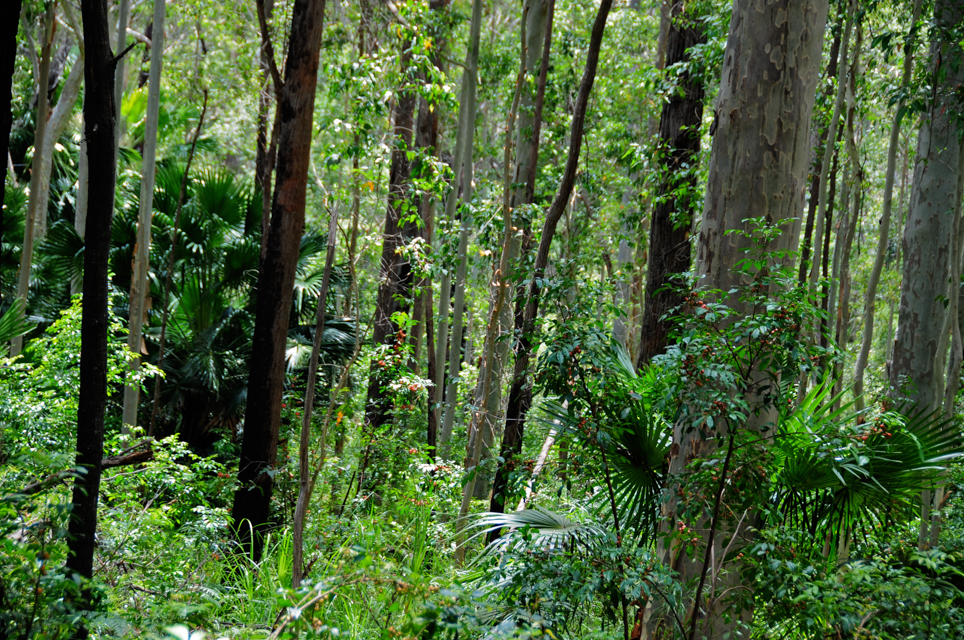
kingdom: Plantae
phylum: Tracheophyta
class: Liliopsida
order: Arecales
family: Arecaceae
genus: Livistona
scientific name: Livistona australis
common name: Cabbage fan palm
